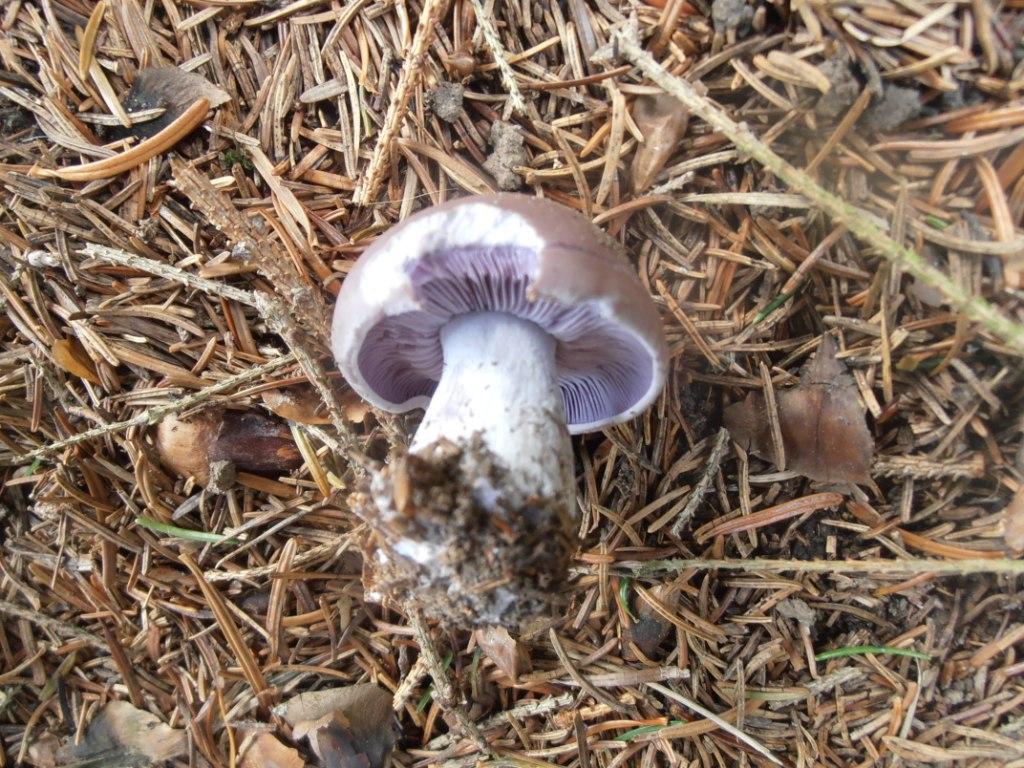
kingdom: Fungi
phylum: Basidiomycota
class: Agaricomycetes
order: Agaricales
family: Tricholomataceae
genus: Lepista
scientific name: Lepista nuda
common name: violet hekseringshat
